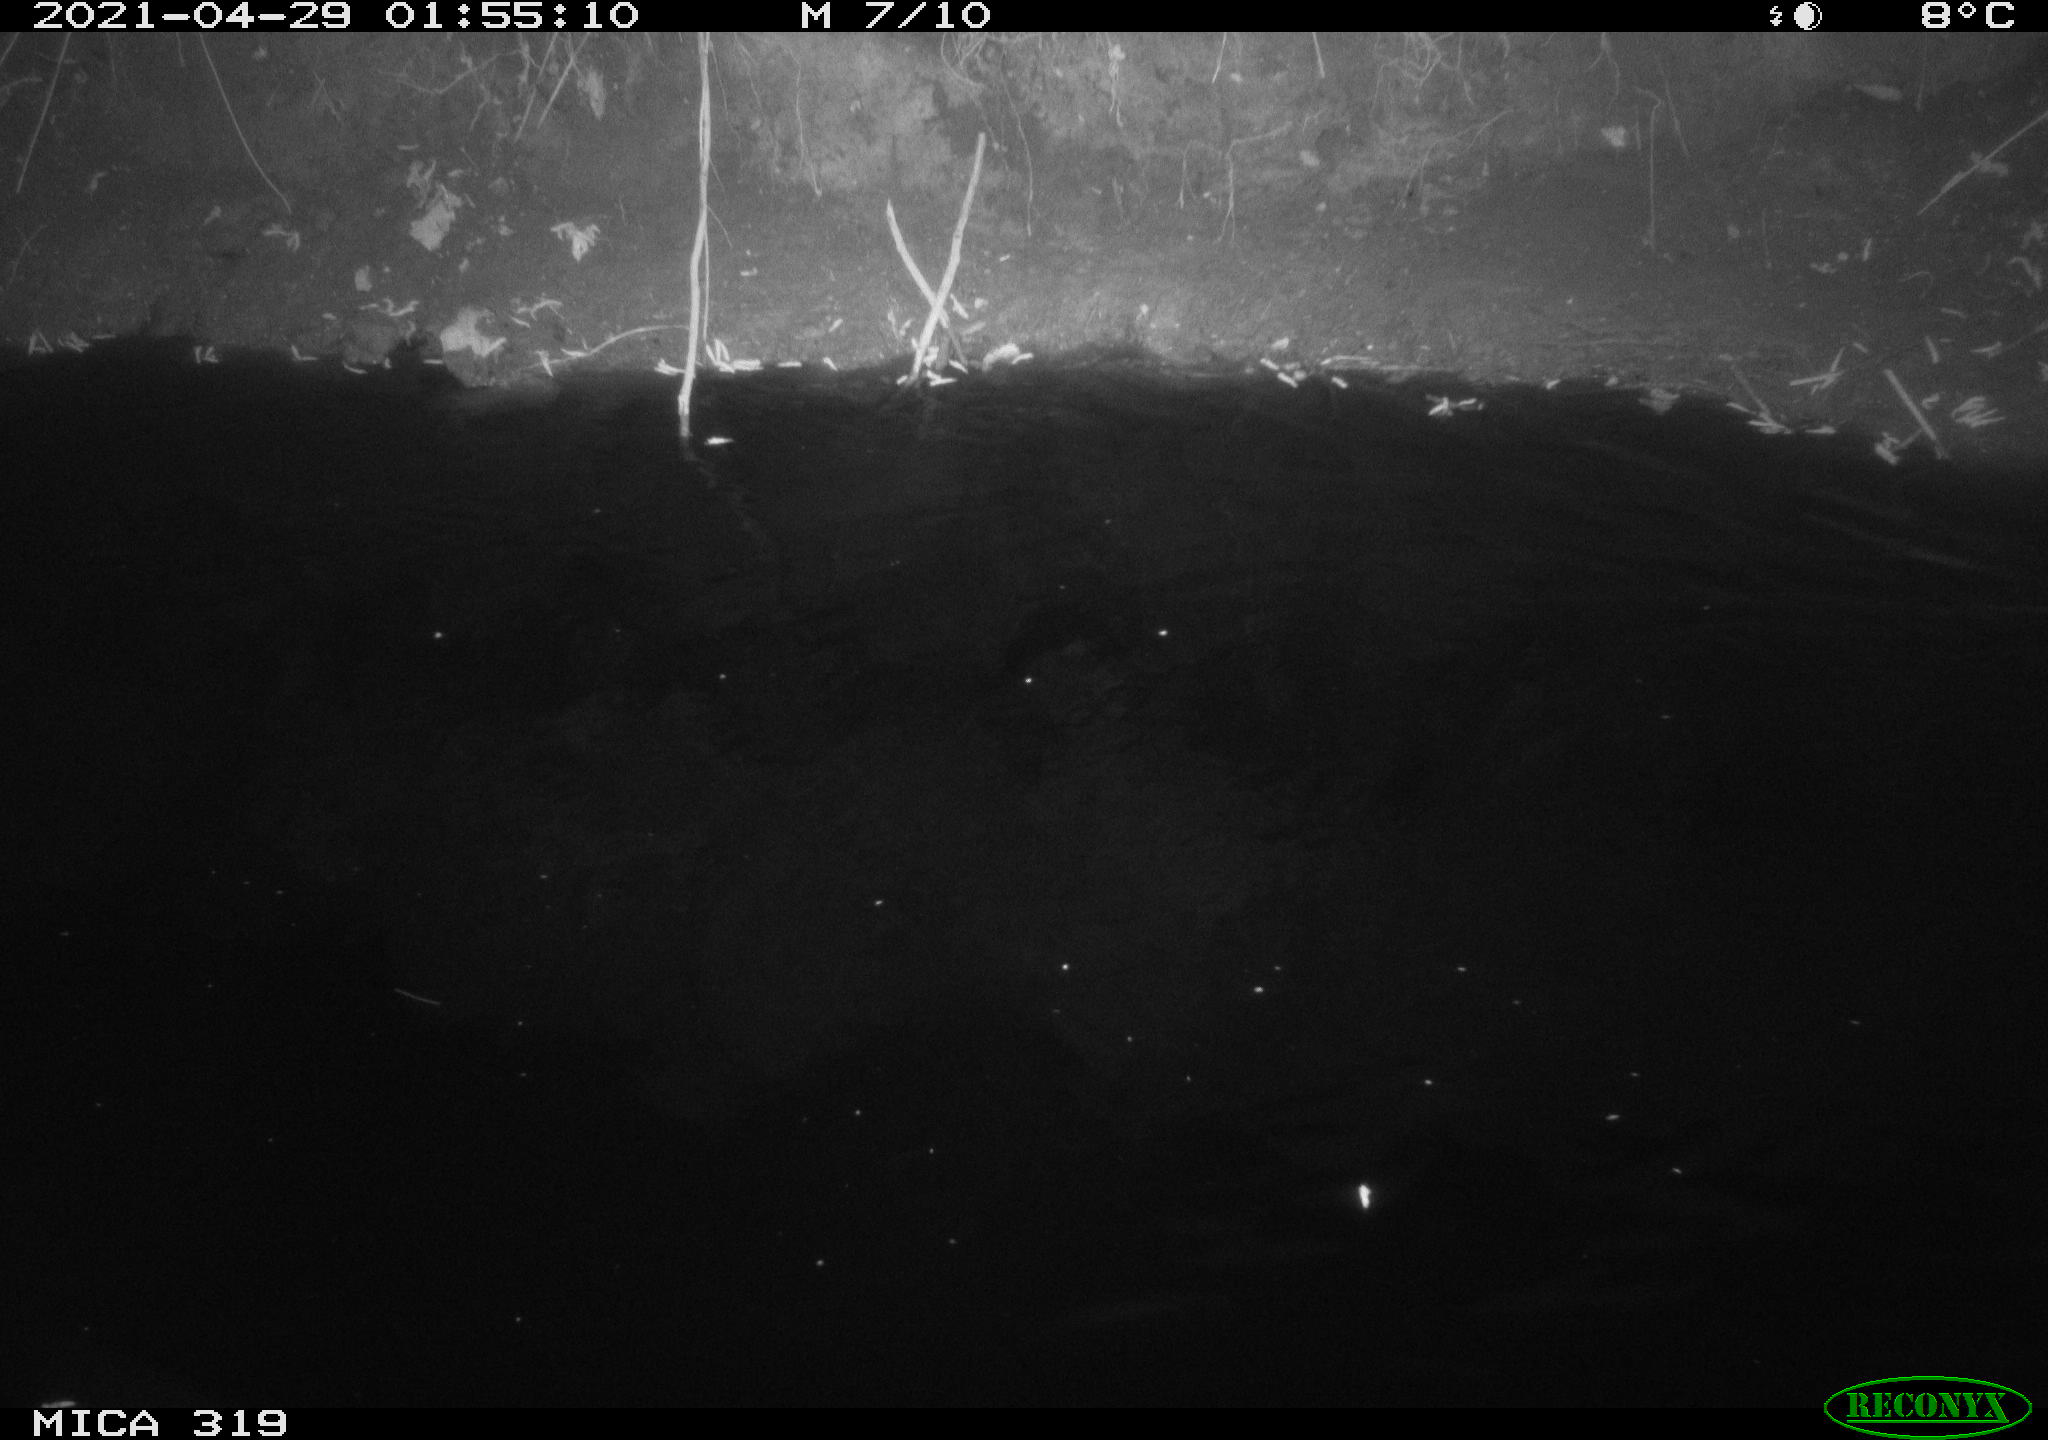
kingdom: Animalia
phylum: Chordata
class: Aves
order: Anseriformes
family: Anatidae
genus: Anas
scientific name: Anas platyrhynchos
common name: Mallard
